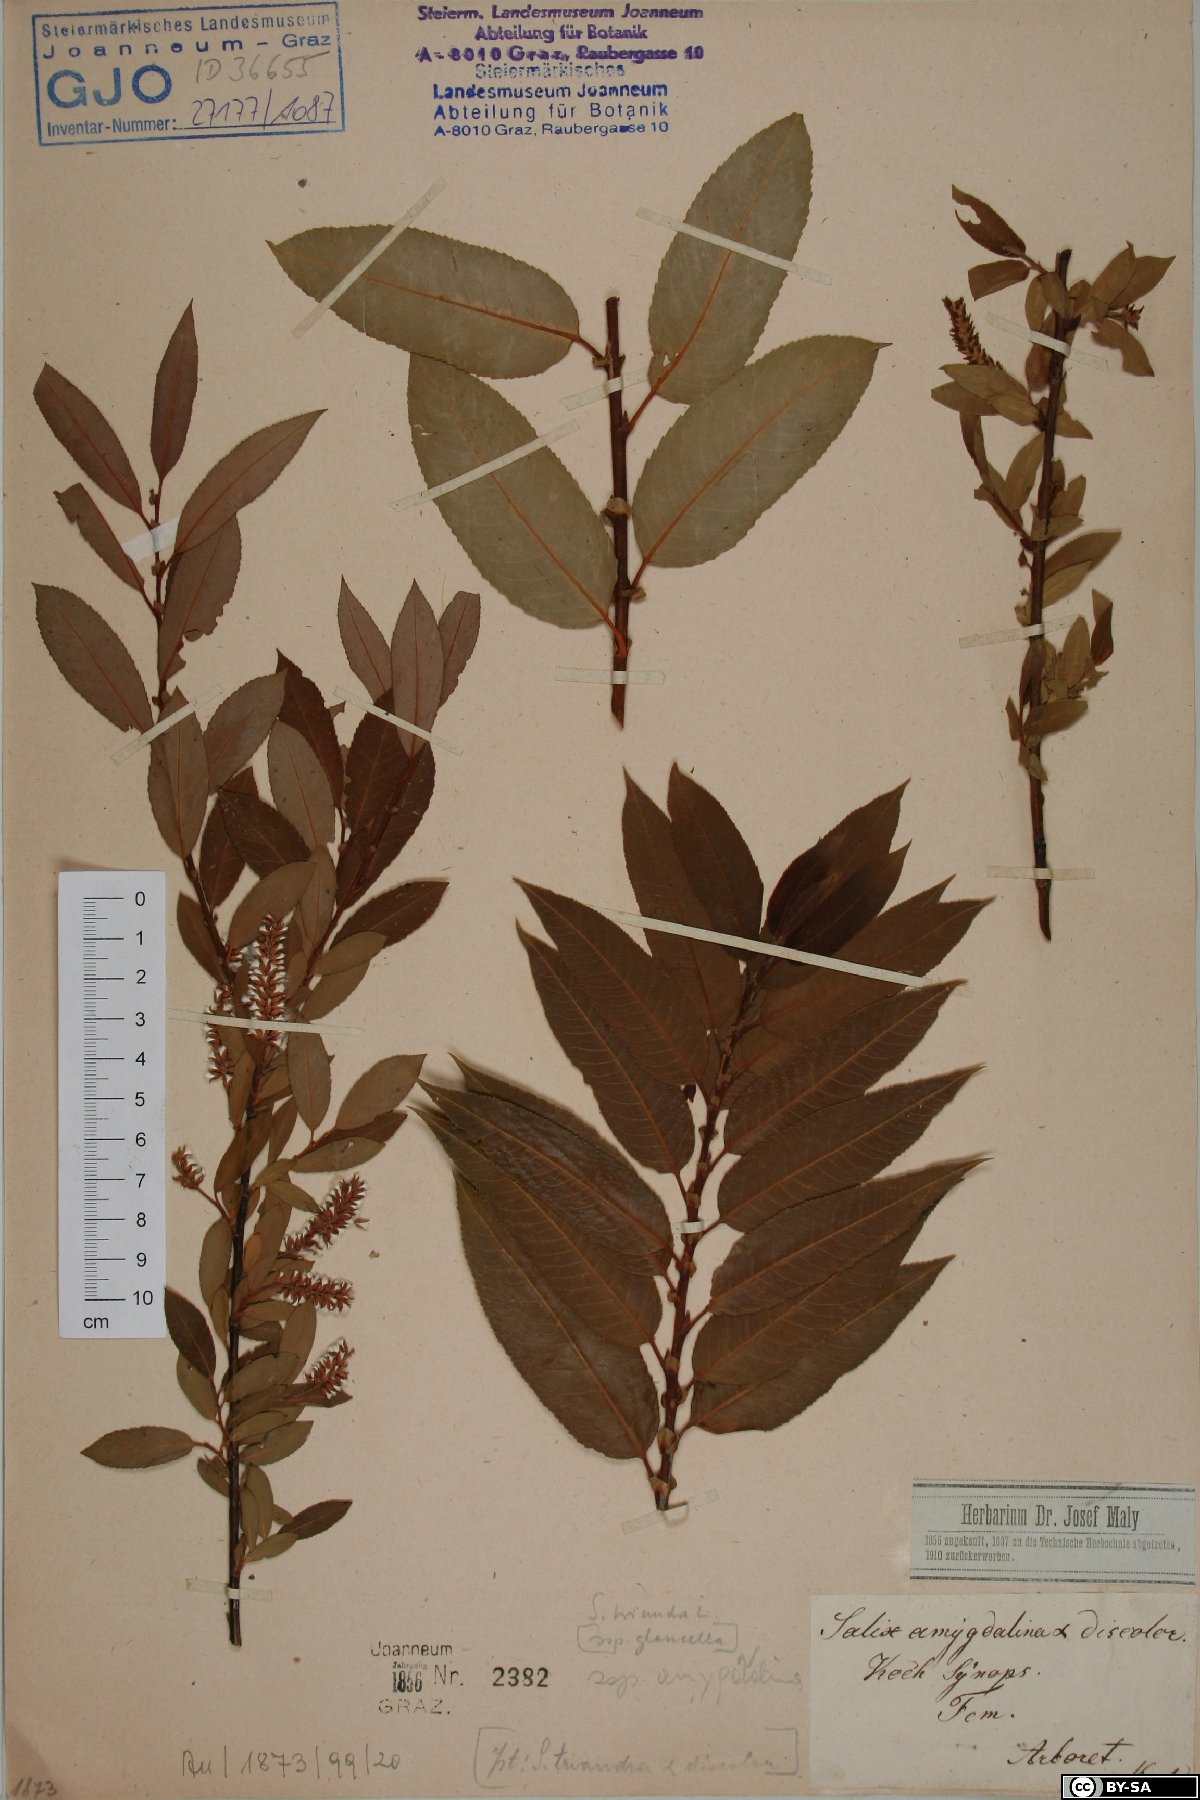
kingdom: Plantae
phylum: Tracheophyta
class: Magnoliopsida
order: Malpighiales
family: Salicaceae
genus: Salix
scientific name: Salix triandra
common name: Almond willow
